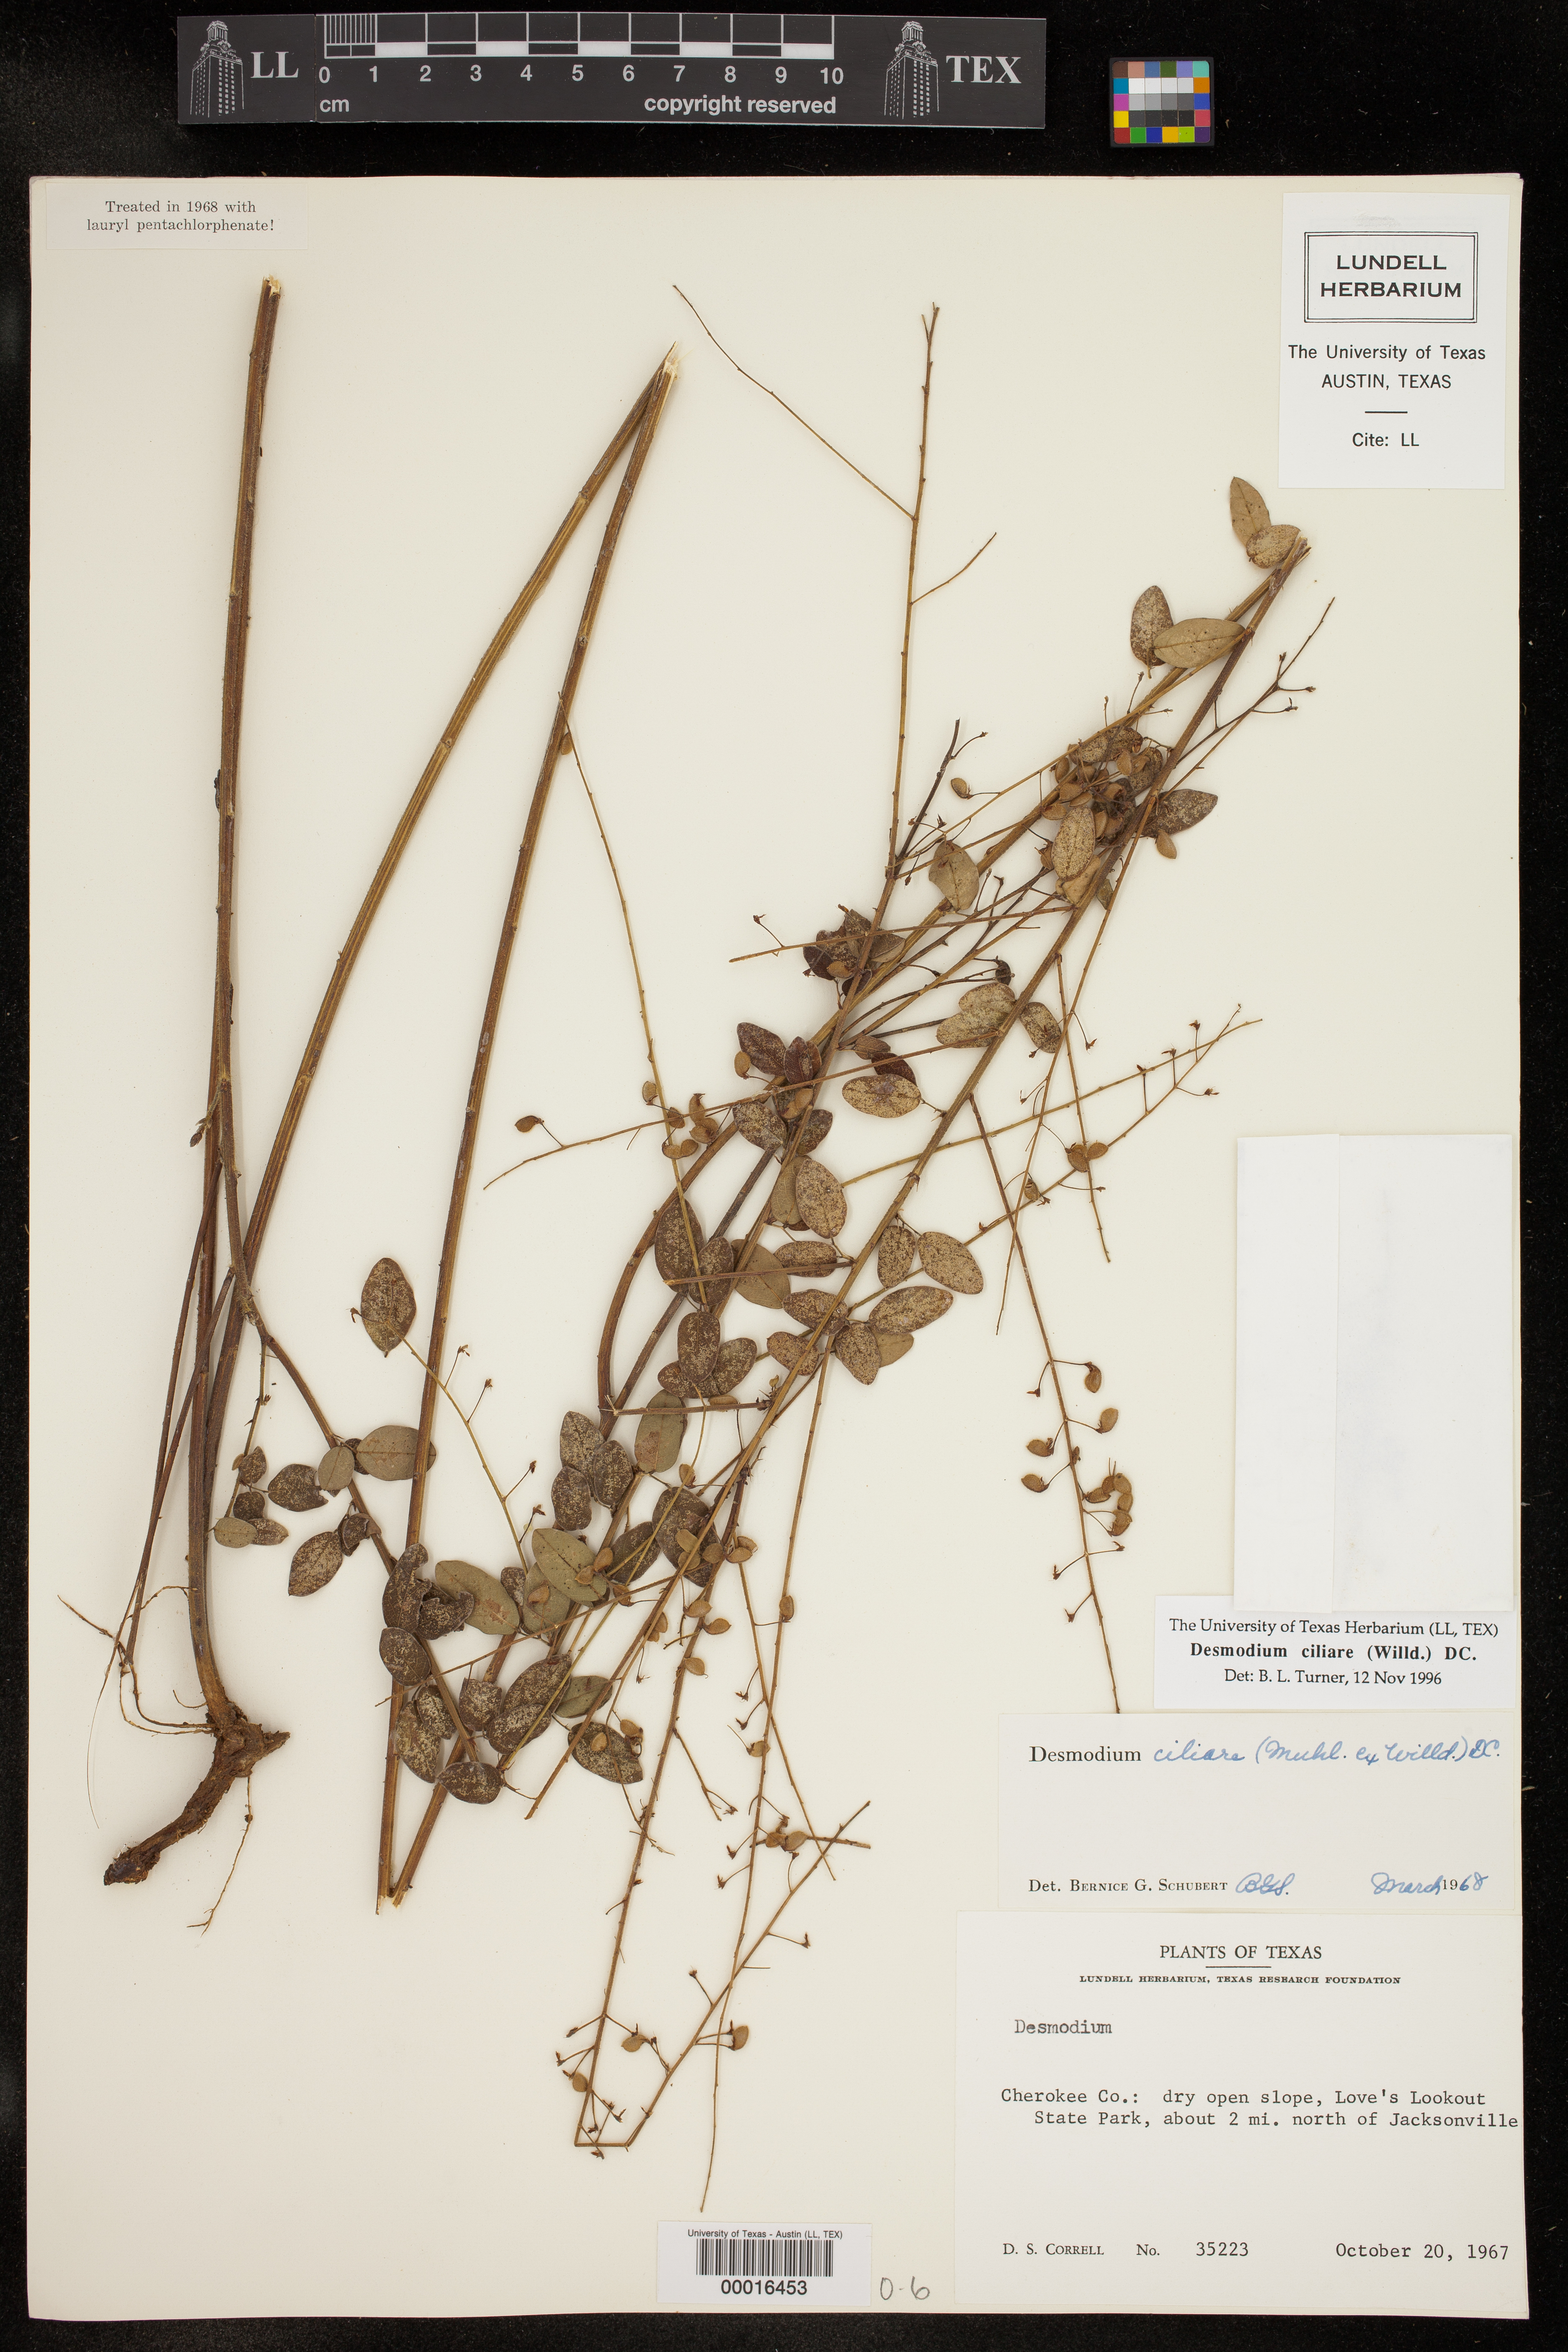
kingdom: Plantae
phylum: Tracheophyta
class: Magnoliopsida
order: Fabales
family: Fabaceae
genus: Desmodium
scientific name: Desmodium ciliare
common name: Hairy small-leaf ticktrefoil
